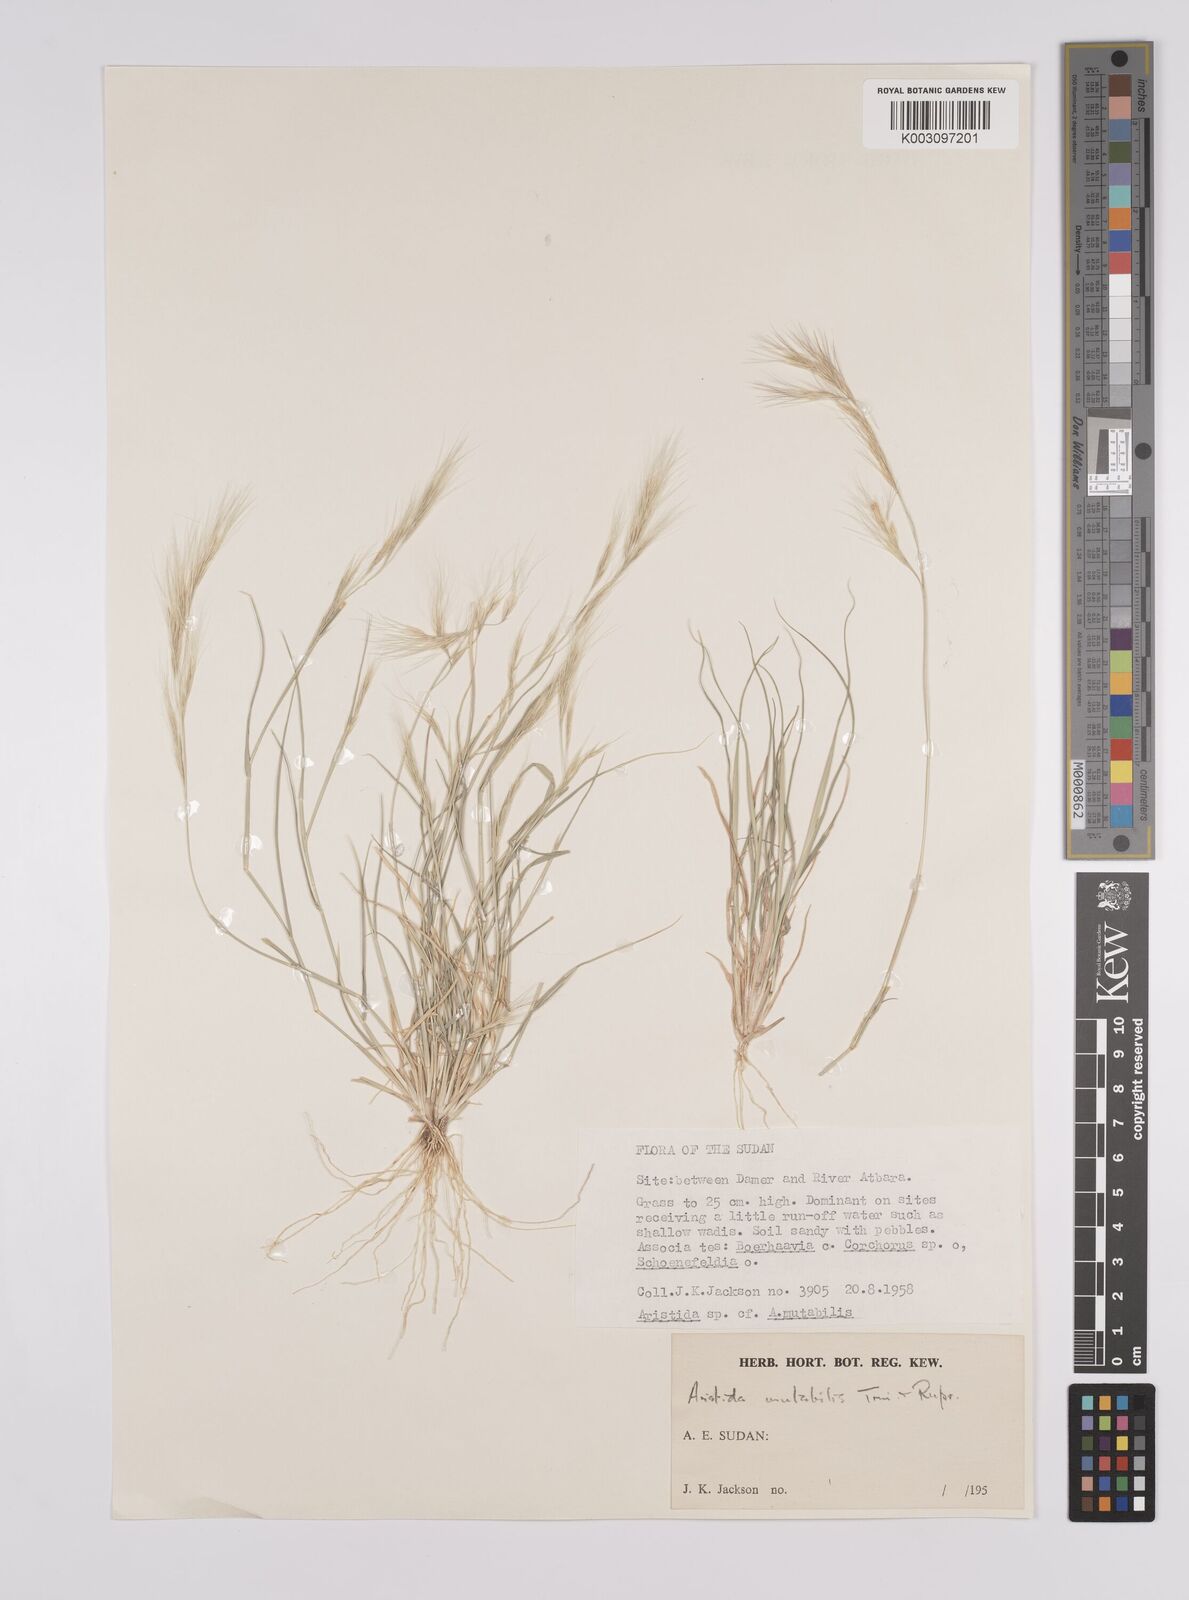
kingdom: Plantae
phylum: Tracheophyta
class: Liliopsida
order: Poales
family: Poaceae
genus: Aristida
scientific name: Aristida mutabilis
